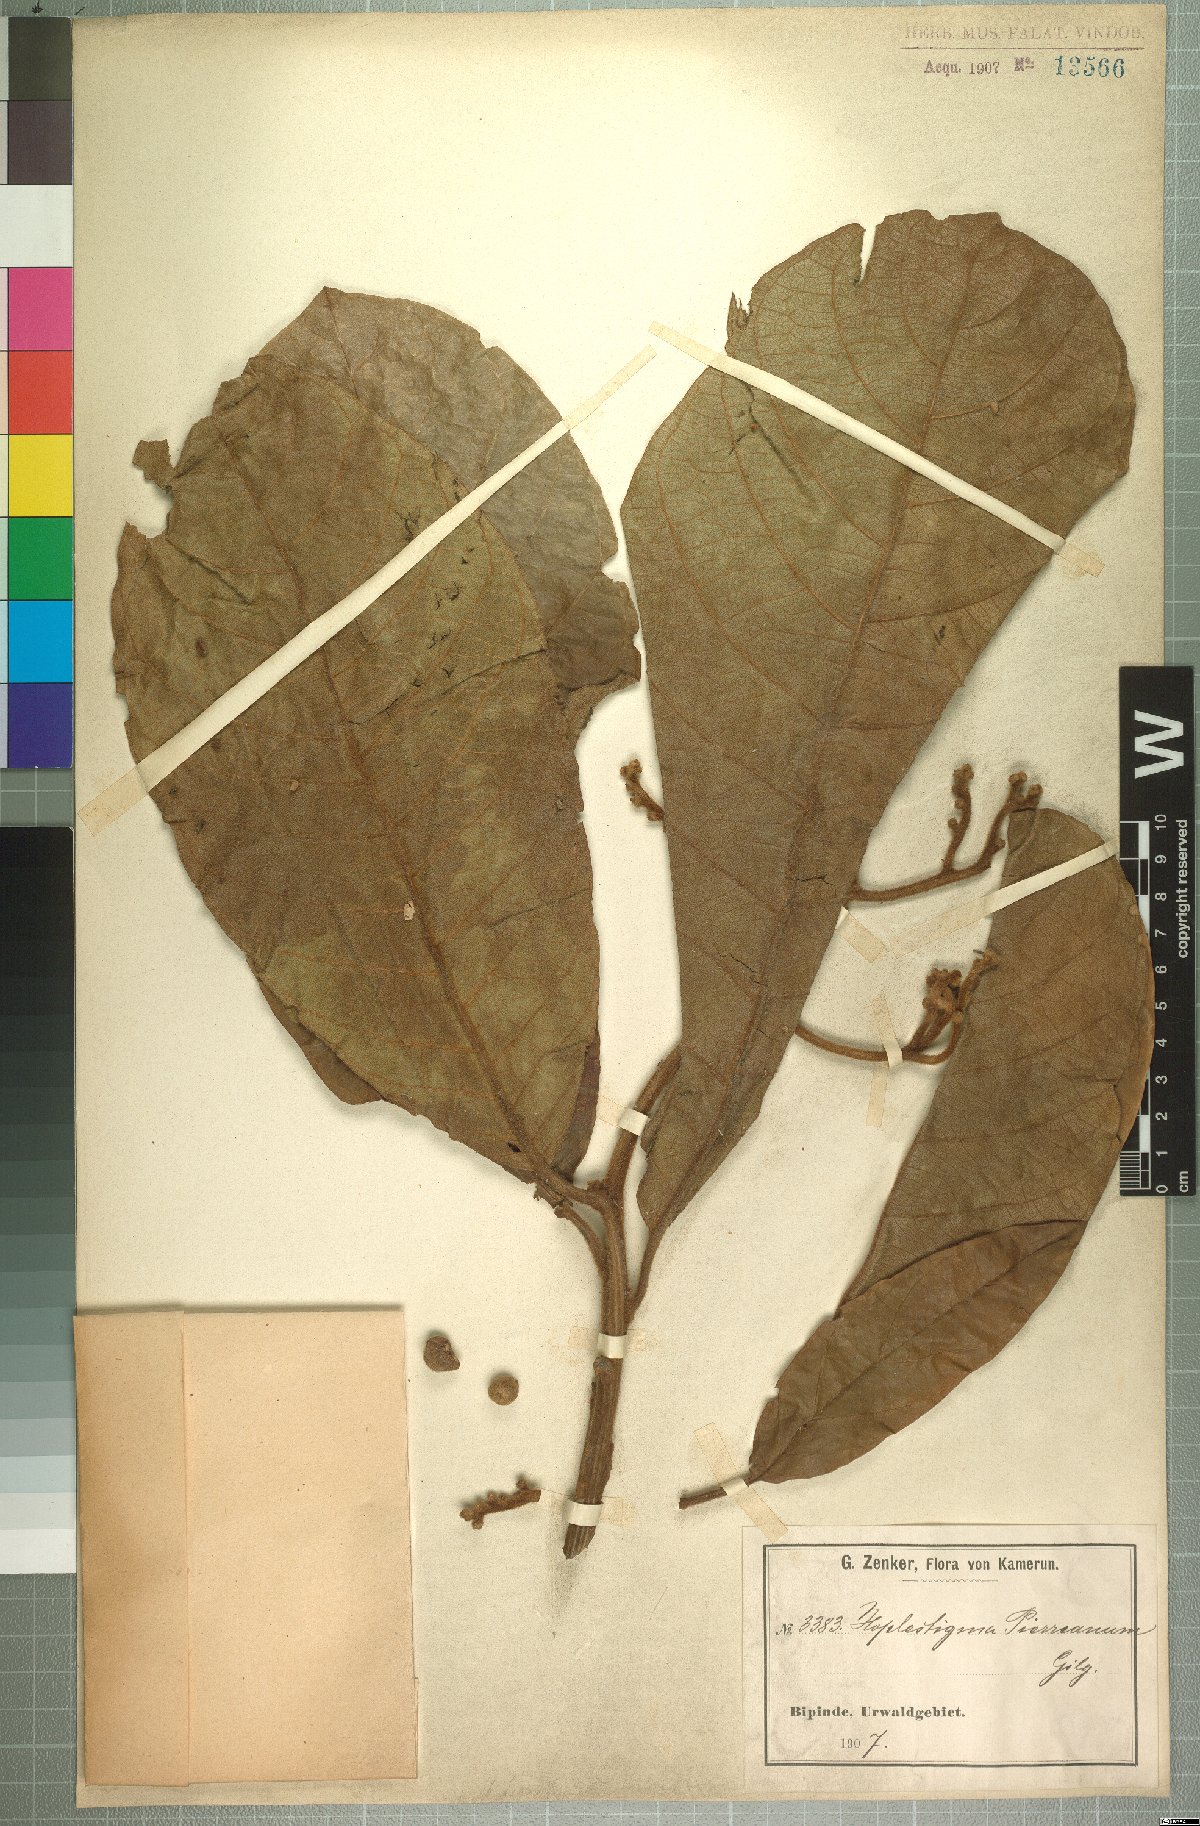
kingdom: Plantae
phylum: Tracheophyta
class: Magnoliopsida
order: Boraginales
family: Hoplestigmataceae
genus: Hoplestigma
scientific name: Hoplestigma pierreanum
